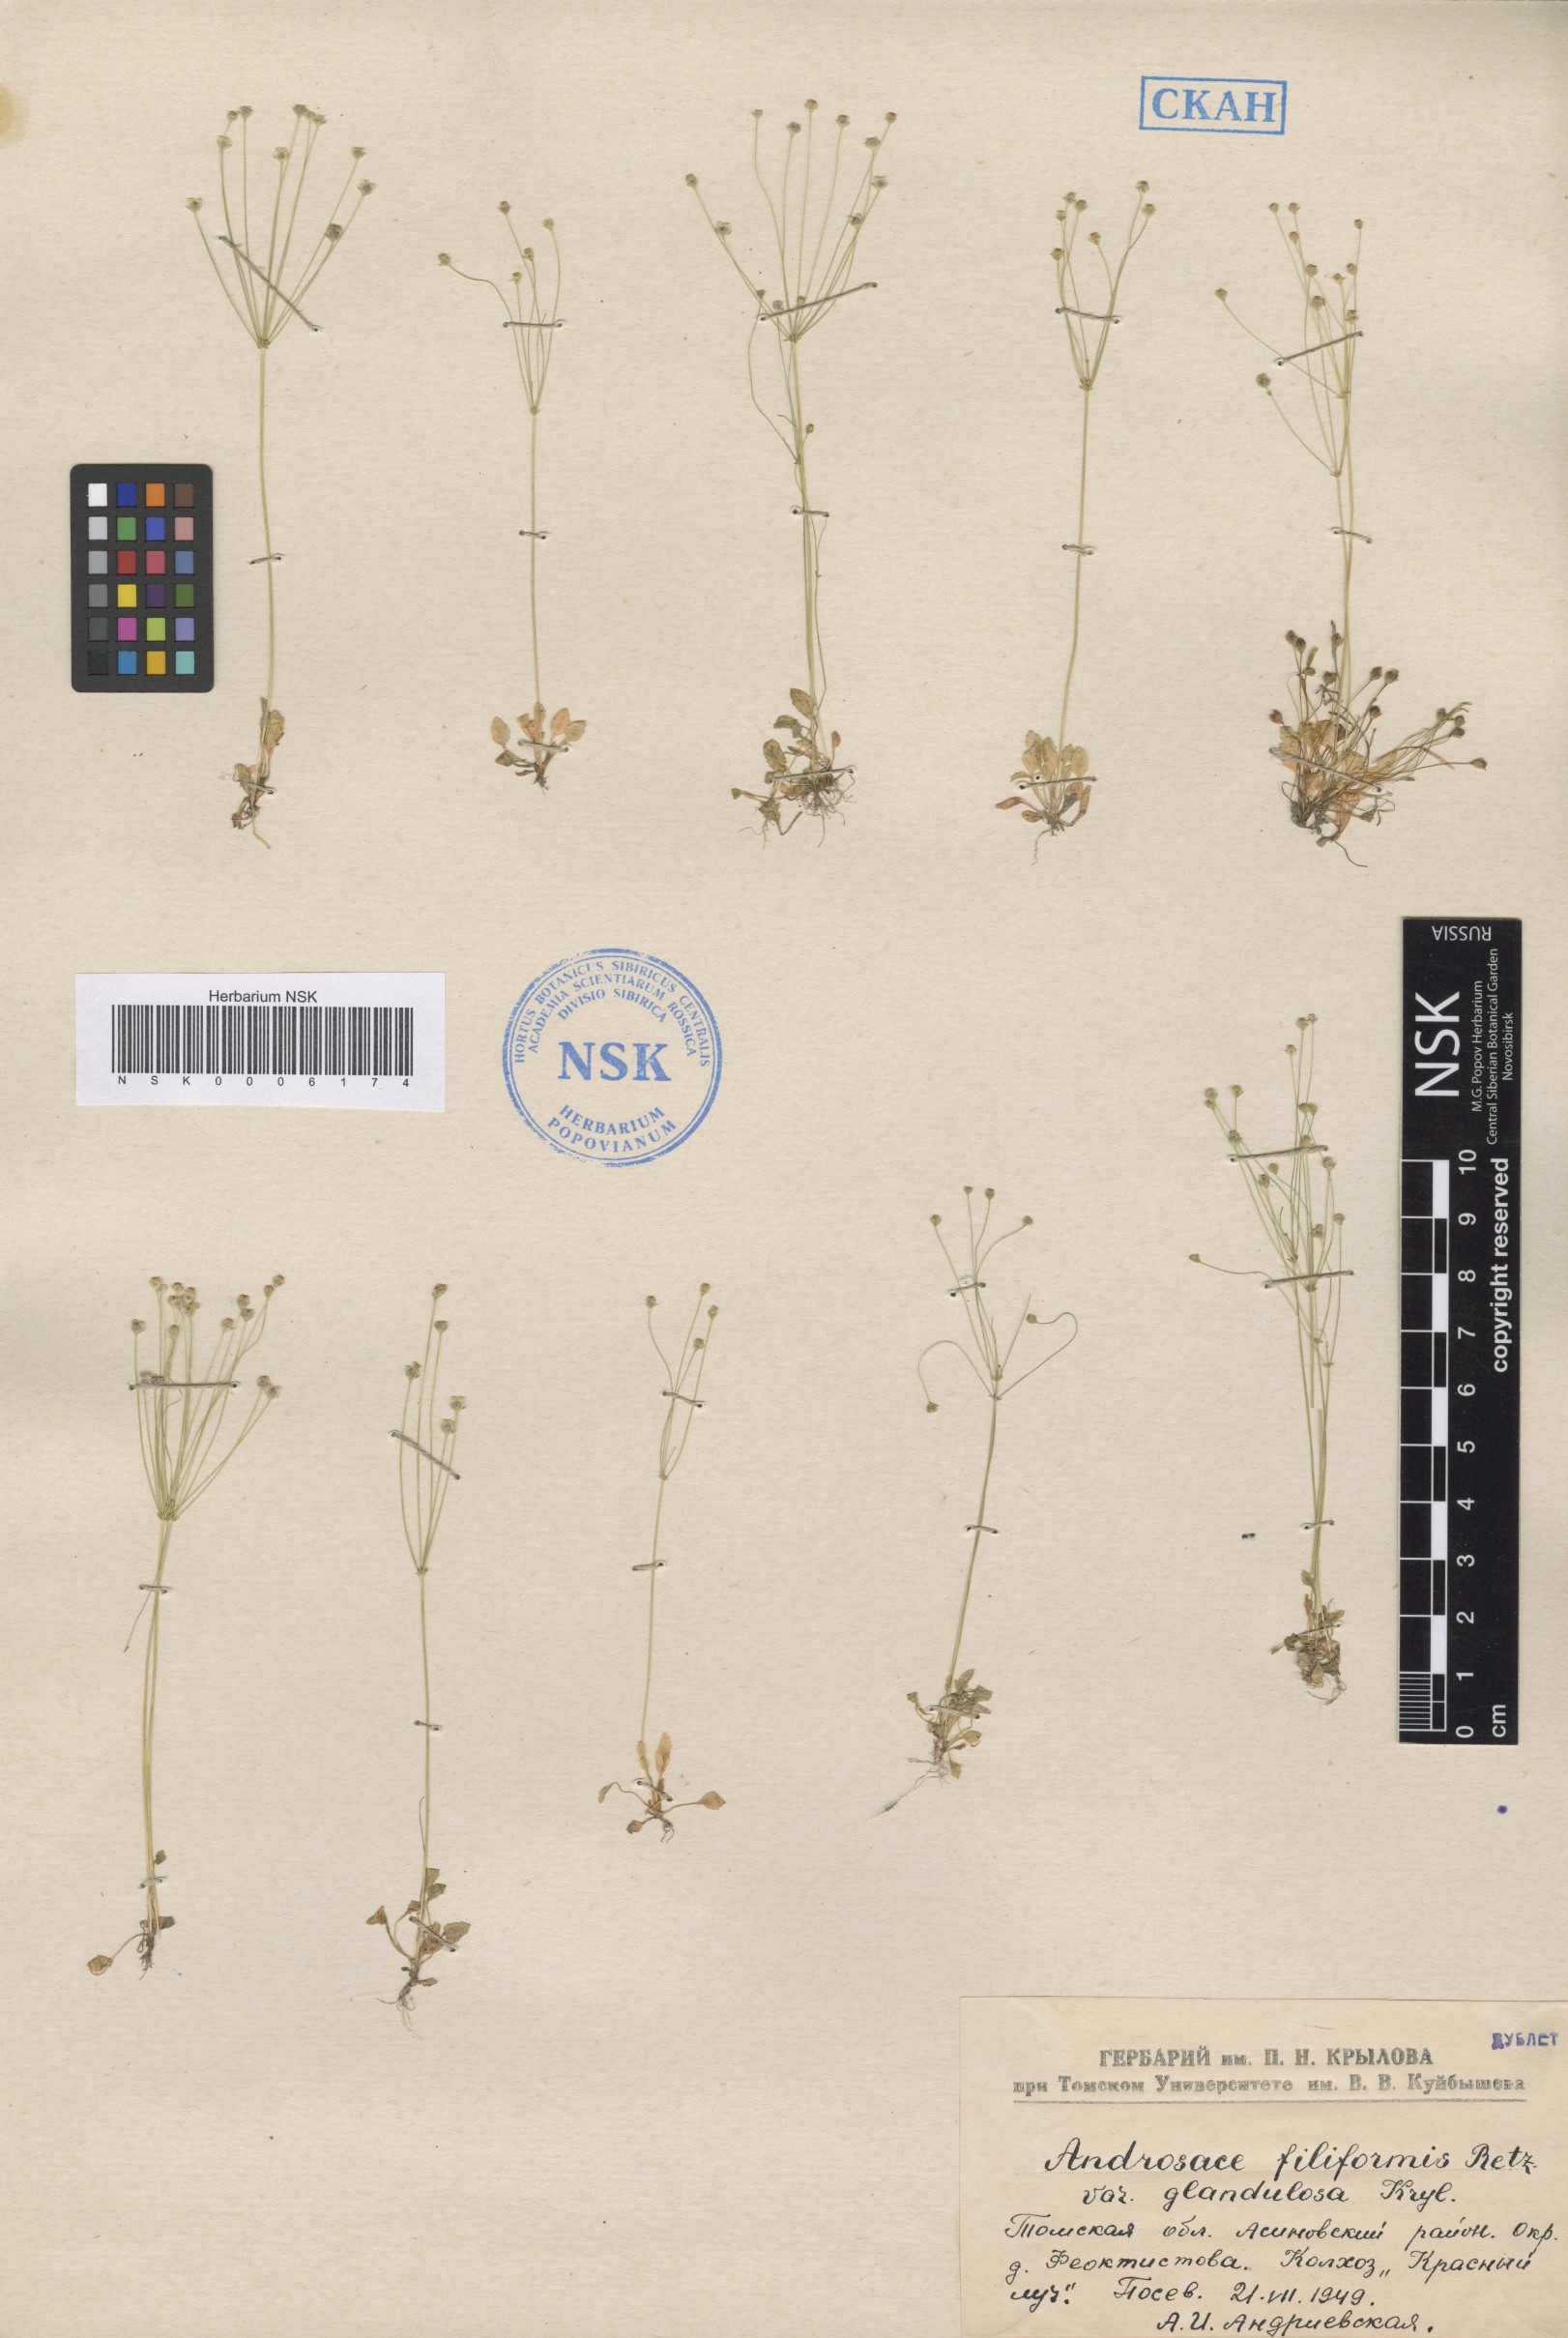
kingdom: Plantae
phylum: Tracheophyta
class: Magnoliopsida
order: Ericales
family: Primulaceae
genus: Androsace
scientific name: Androsace filiformis
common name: Filiform rock jasmine
